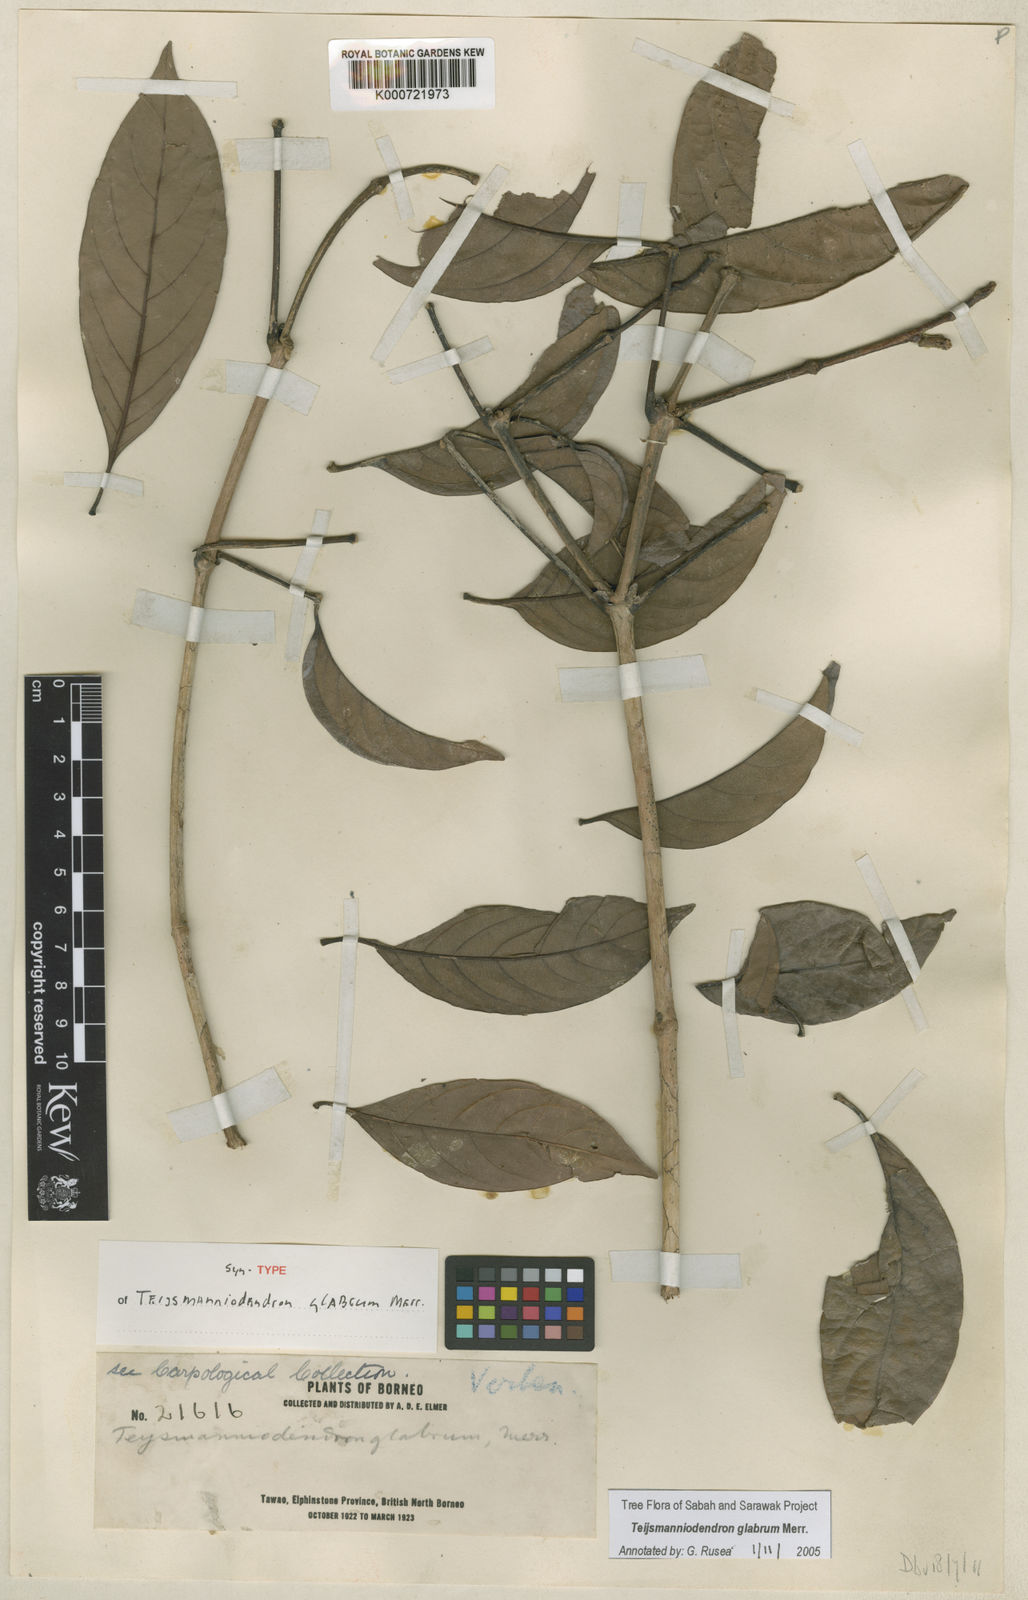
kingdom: Plantae
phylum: Tracheophyta
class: Magnoliopsida
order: Lamiales
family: Lamiaceae
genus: Teijsmanniodendron
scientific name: Teijsmanniodendron glabrum
